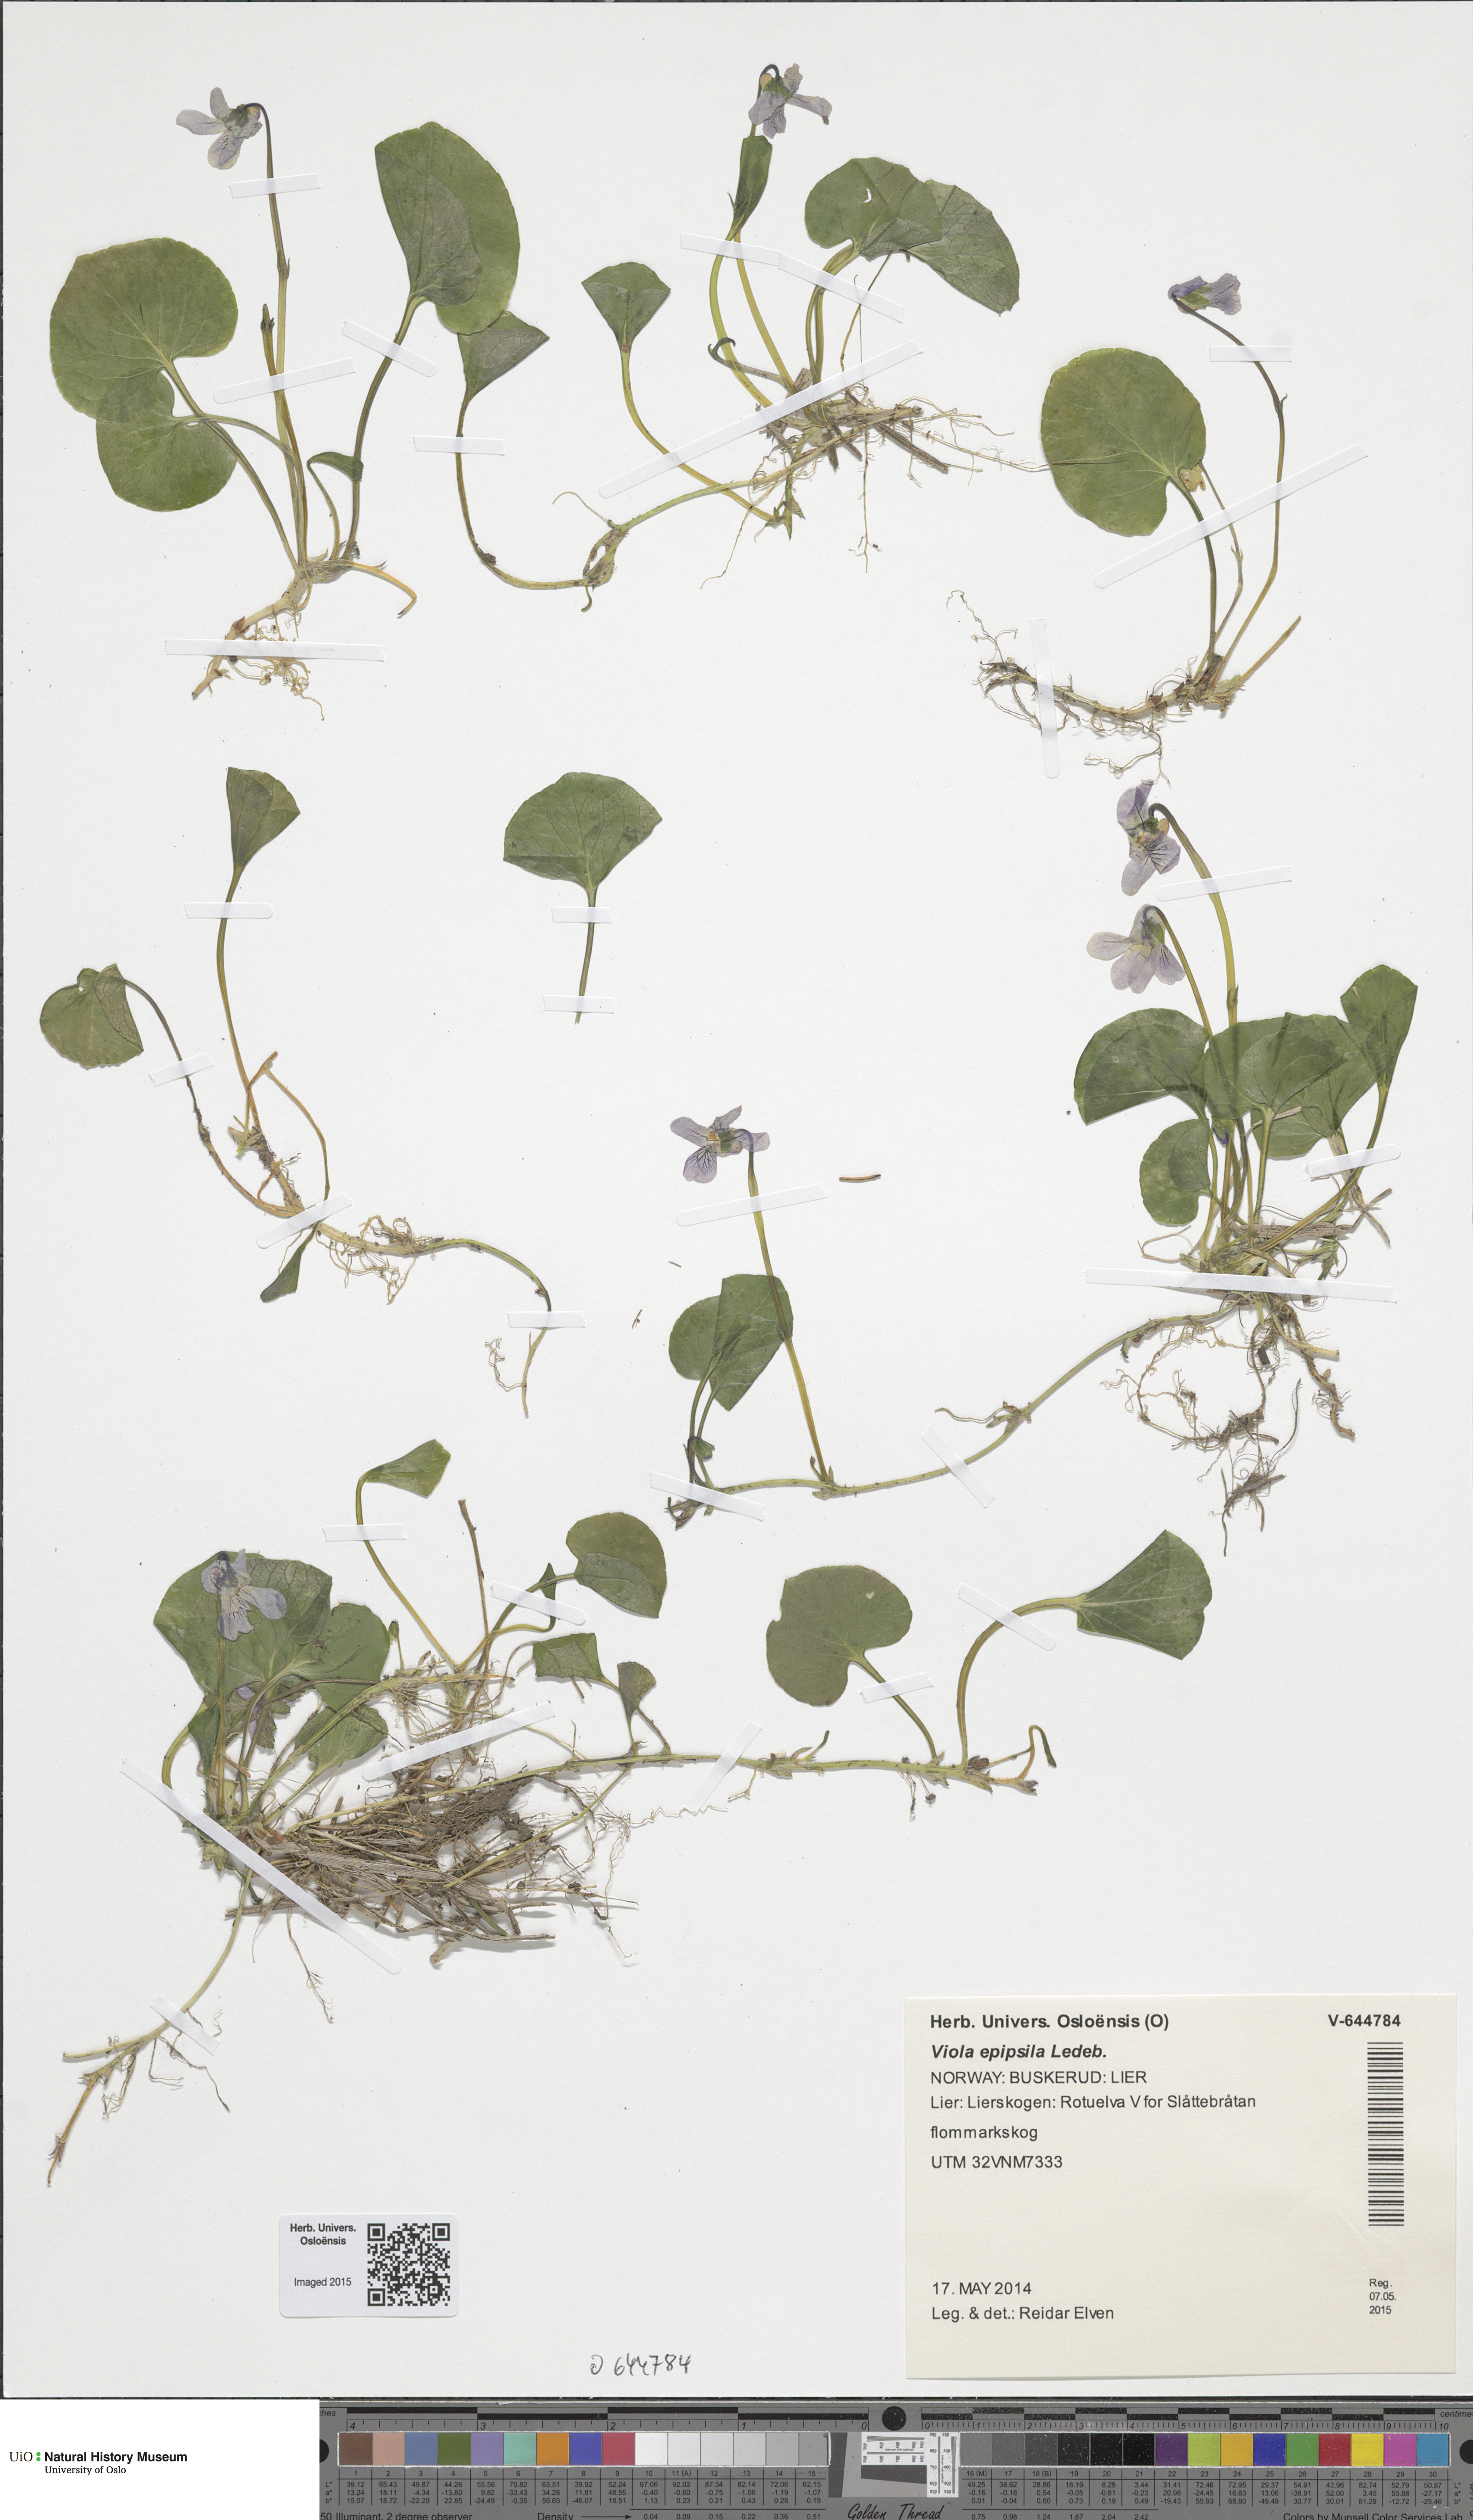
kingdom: Plantae
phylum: Tracheophyta
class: Magnoliopsida
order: Malpighiales
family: Violaceae
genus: Viola
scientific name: Viola epipsila
